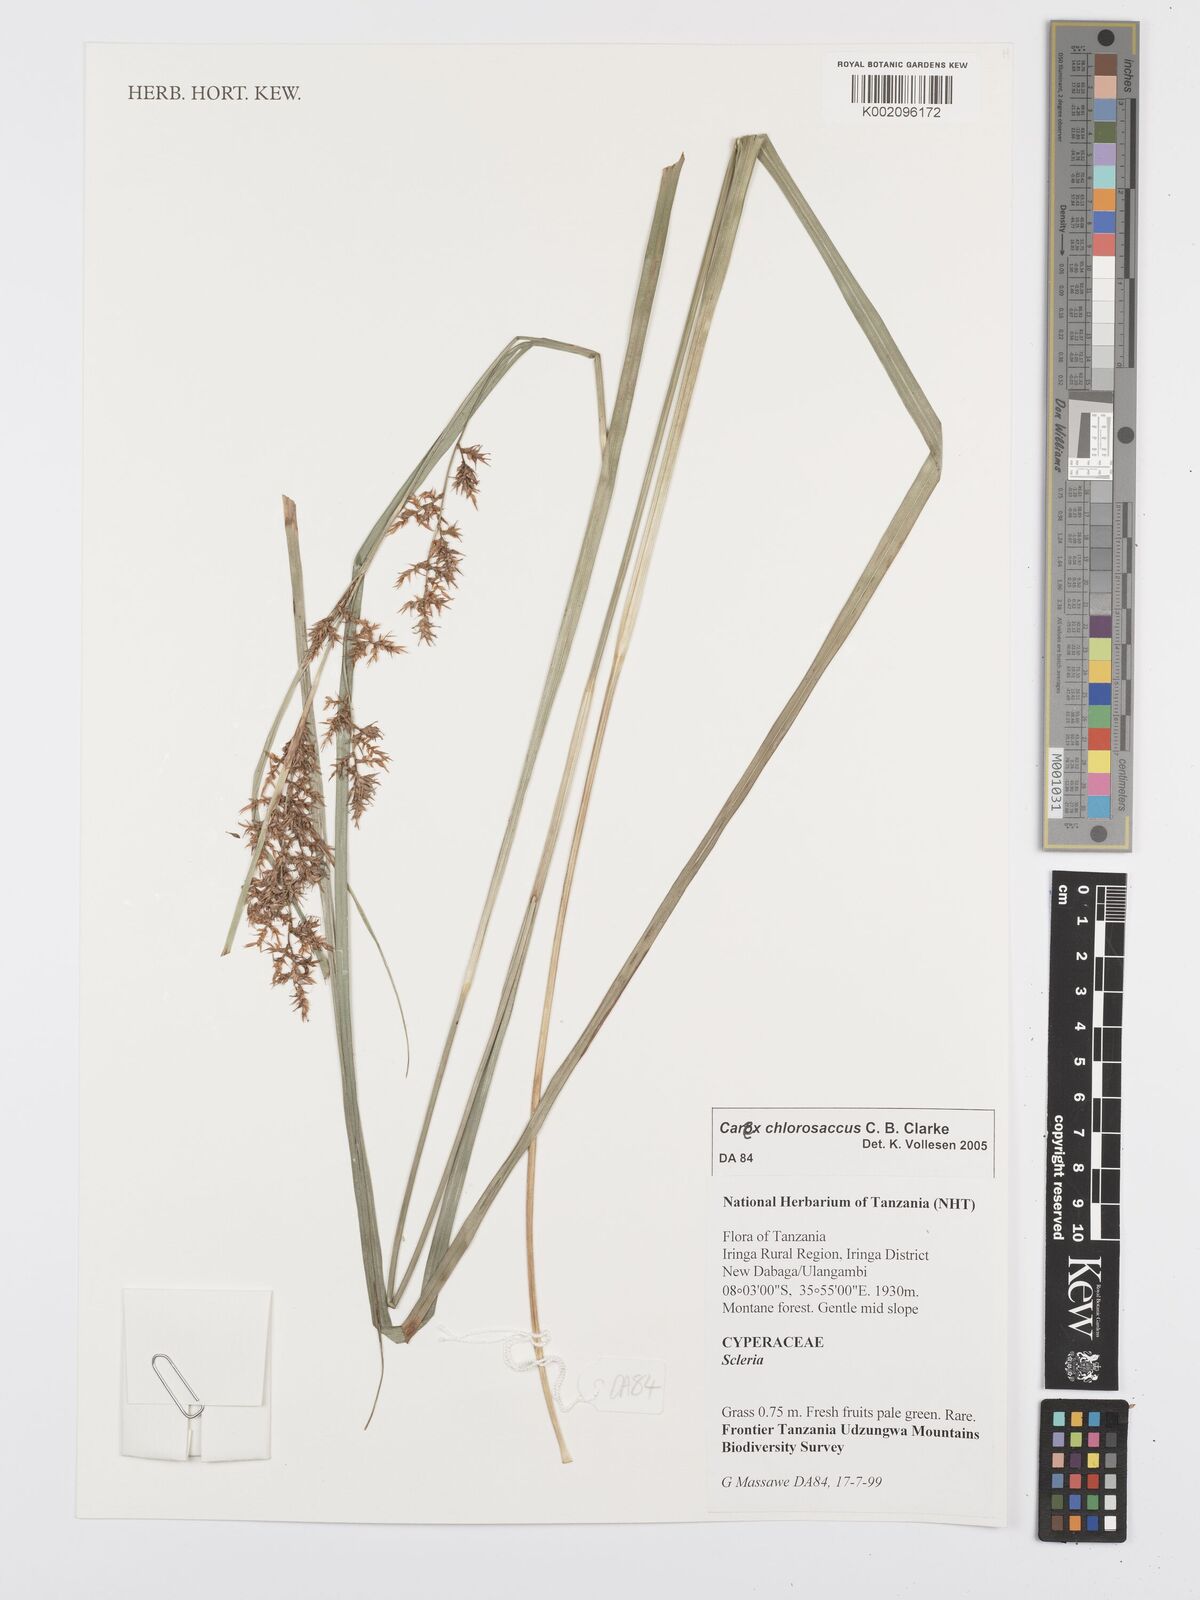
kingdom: Plantae
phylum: Tracheophyta
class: Liliopsida
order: Poales
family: Cyperaceae
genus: Carex
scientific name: Carex chlorosaccus
